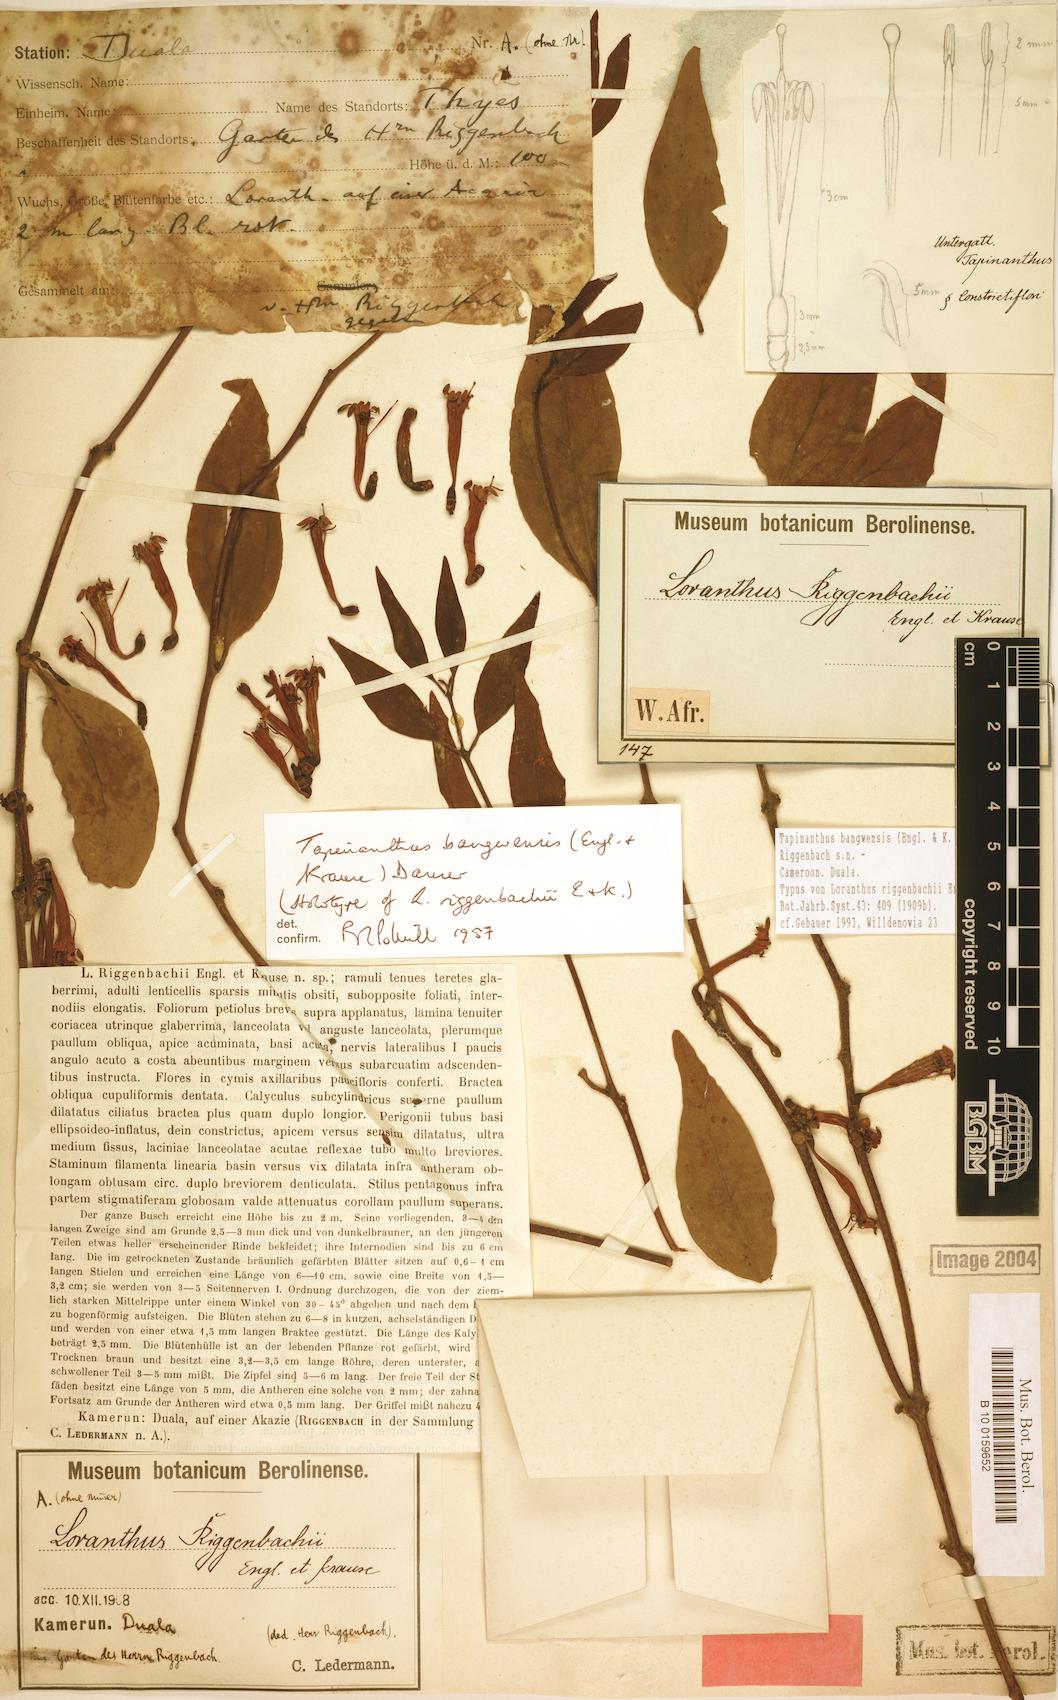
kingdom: Plantae
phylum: Tracheophyta
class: Magnoliopsida
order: Santalales
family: Loranthaceae
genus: Tapinanthus
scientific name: Tapinanthus bangwensis
